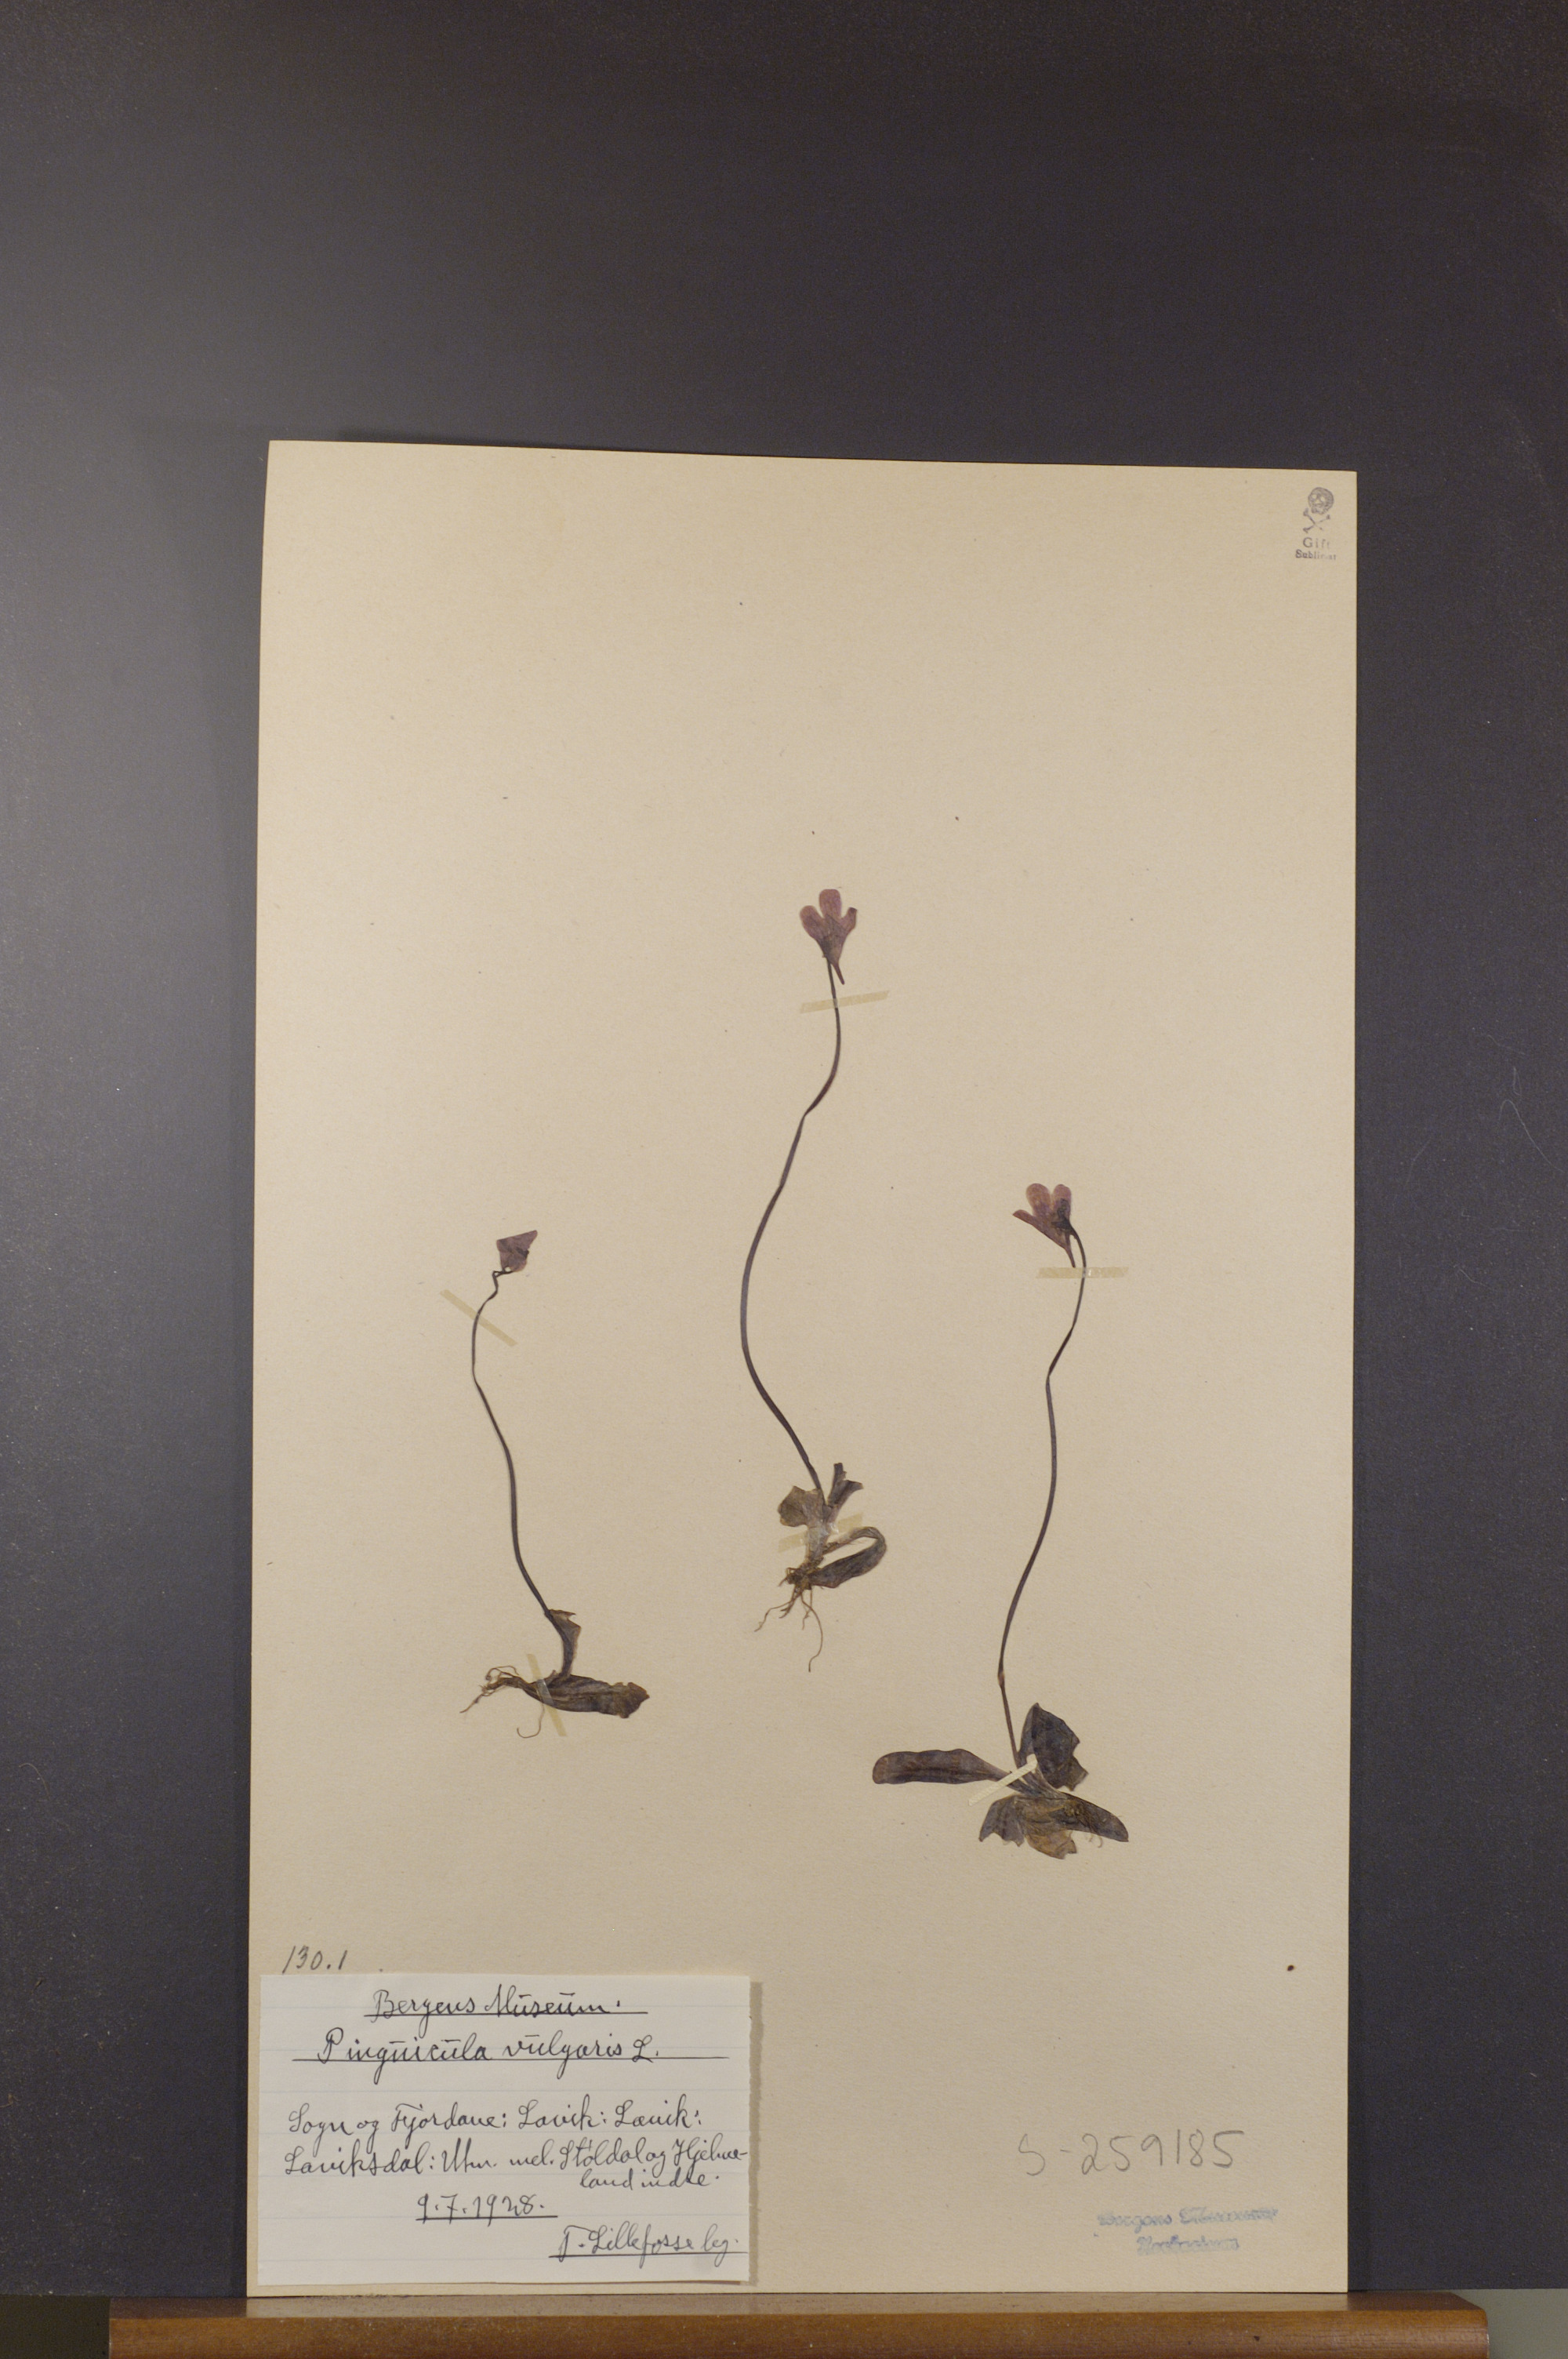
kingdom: Plantae
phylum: Tracheophyta
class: Magnoliopsida
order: Lamiales
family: Lentibulariaceae
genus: Pinguicula
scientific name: Pinguicula vulgaris
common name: Common butterwort
